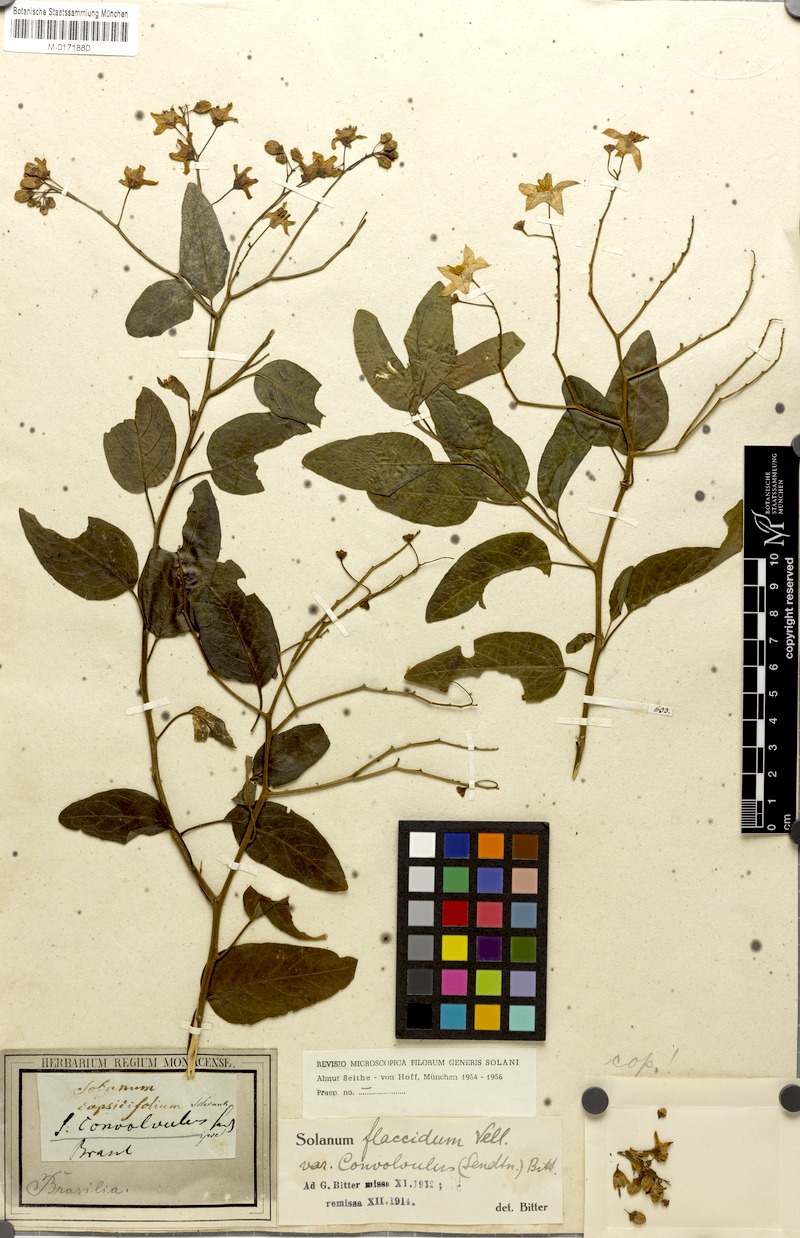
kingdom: Plantae
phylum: Tracheophyta
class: Magnoliopsida
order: Solanales
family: Solanaceae
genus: Solanum
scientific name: Solanum flaccidum
